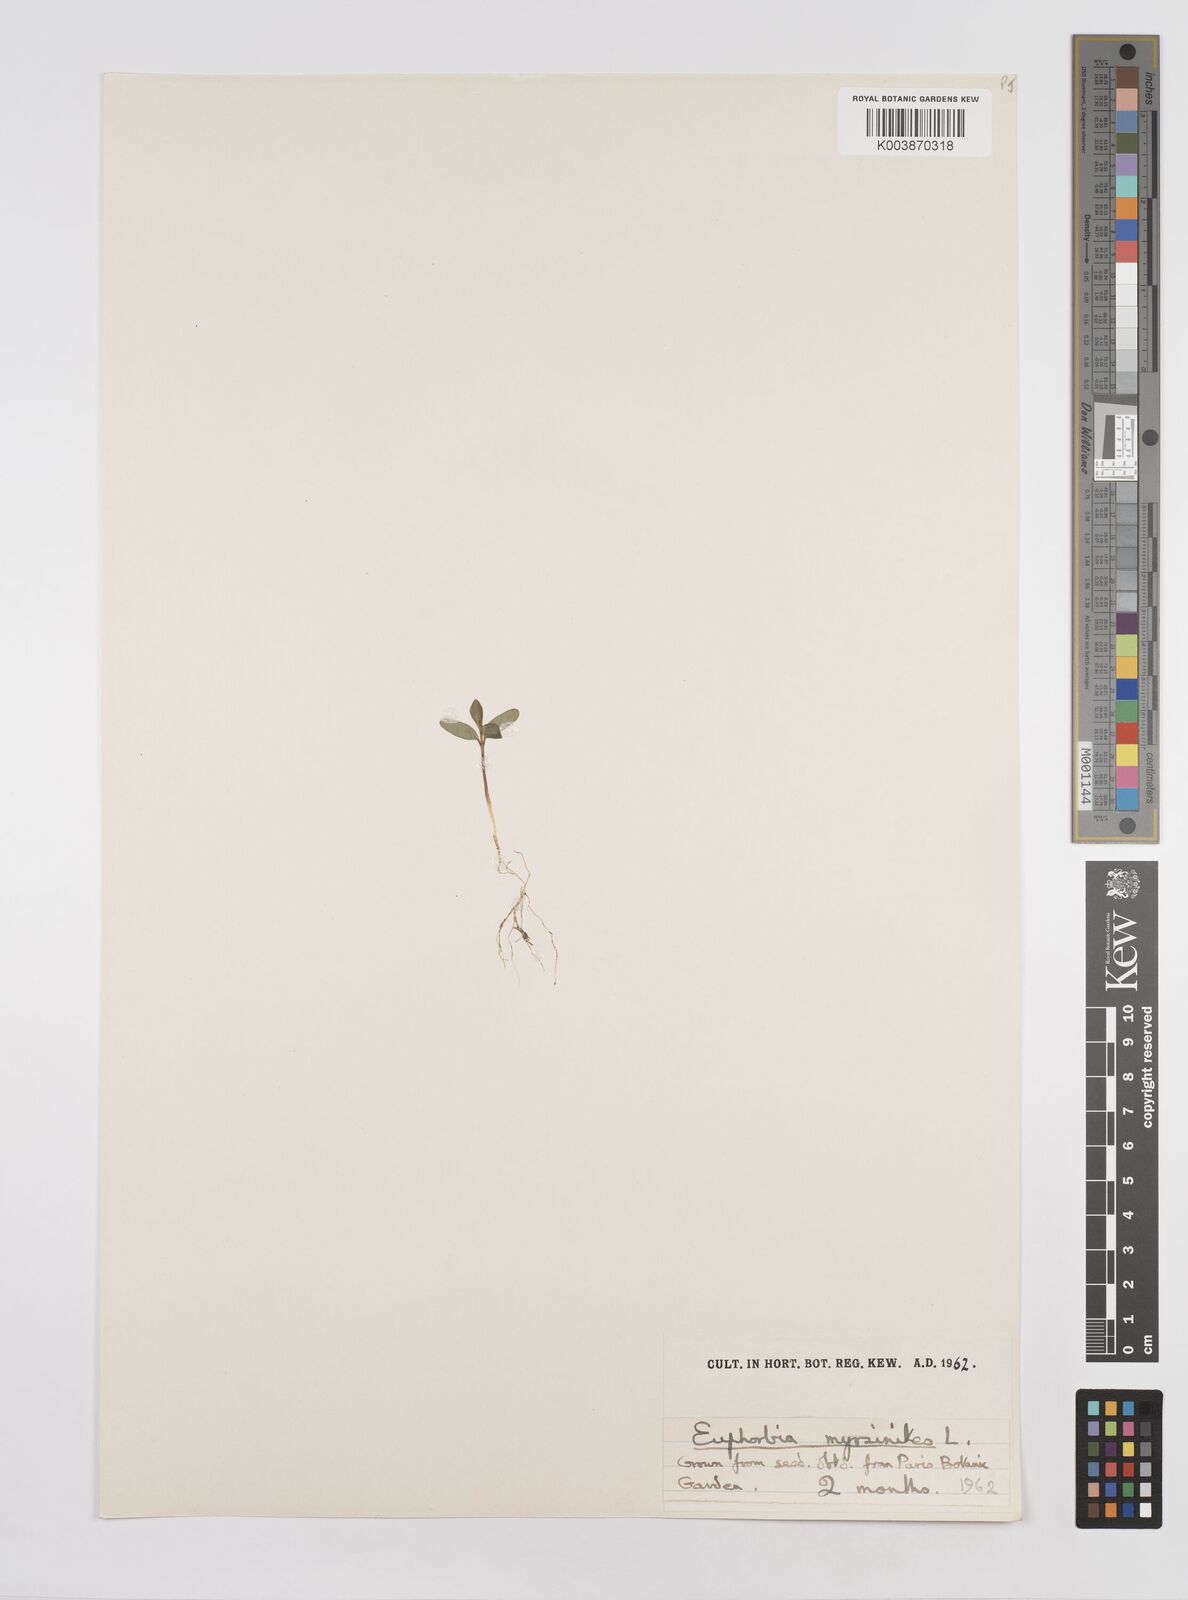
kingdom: Plantae
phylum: Tracheophyta
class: Magnoliopsida
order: Malpighiales
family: Euphorbiaceae
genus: Euphorbia
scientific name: Euphorbia myrsinites
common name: Myrtle spurge
